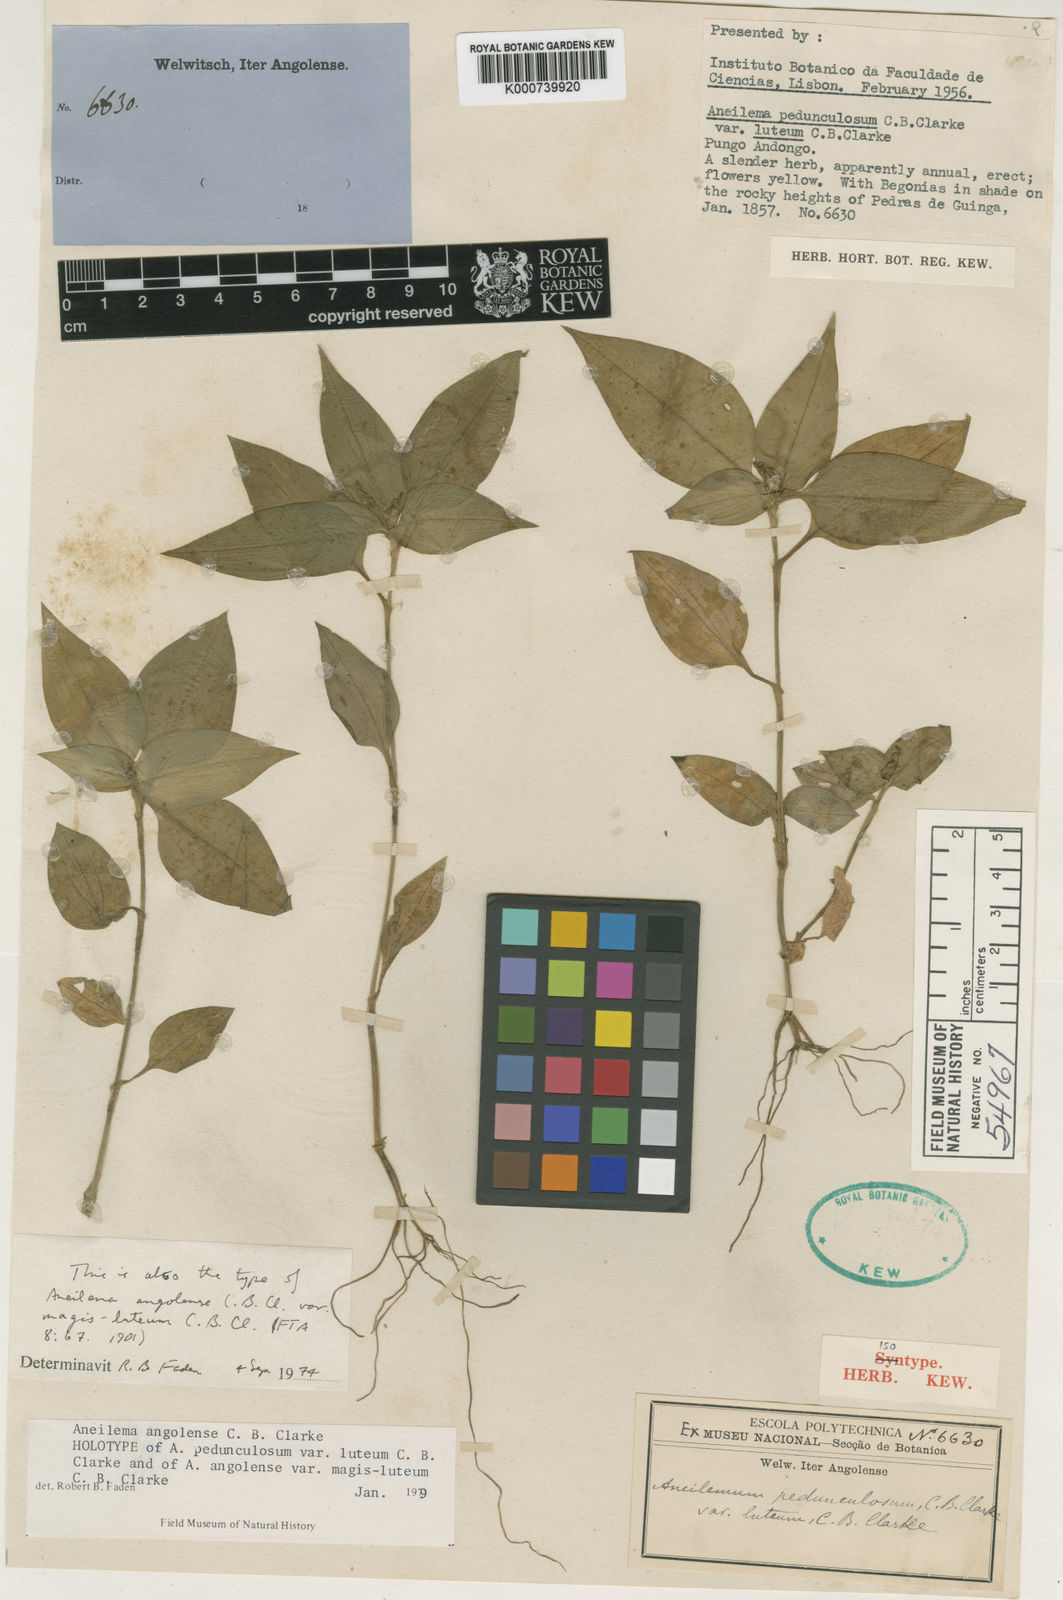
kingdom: Plantae
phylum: Tracheophyta
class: Liliopsida
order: Commelinales
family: Commelinaceae
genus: Aneilema
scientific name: Aneilema angolense
